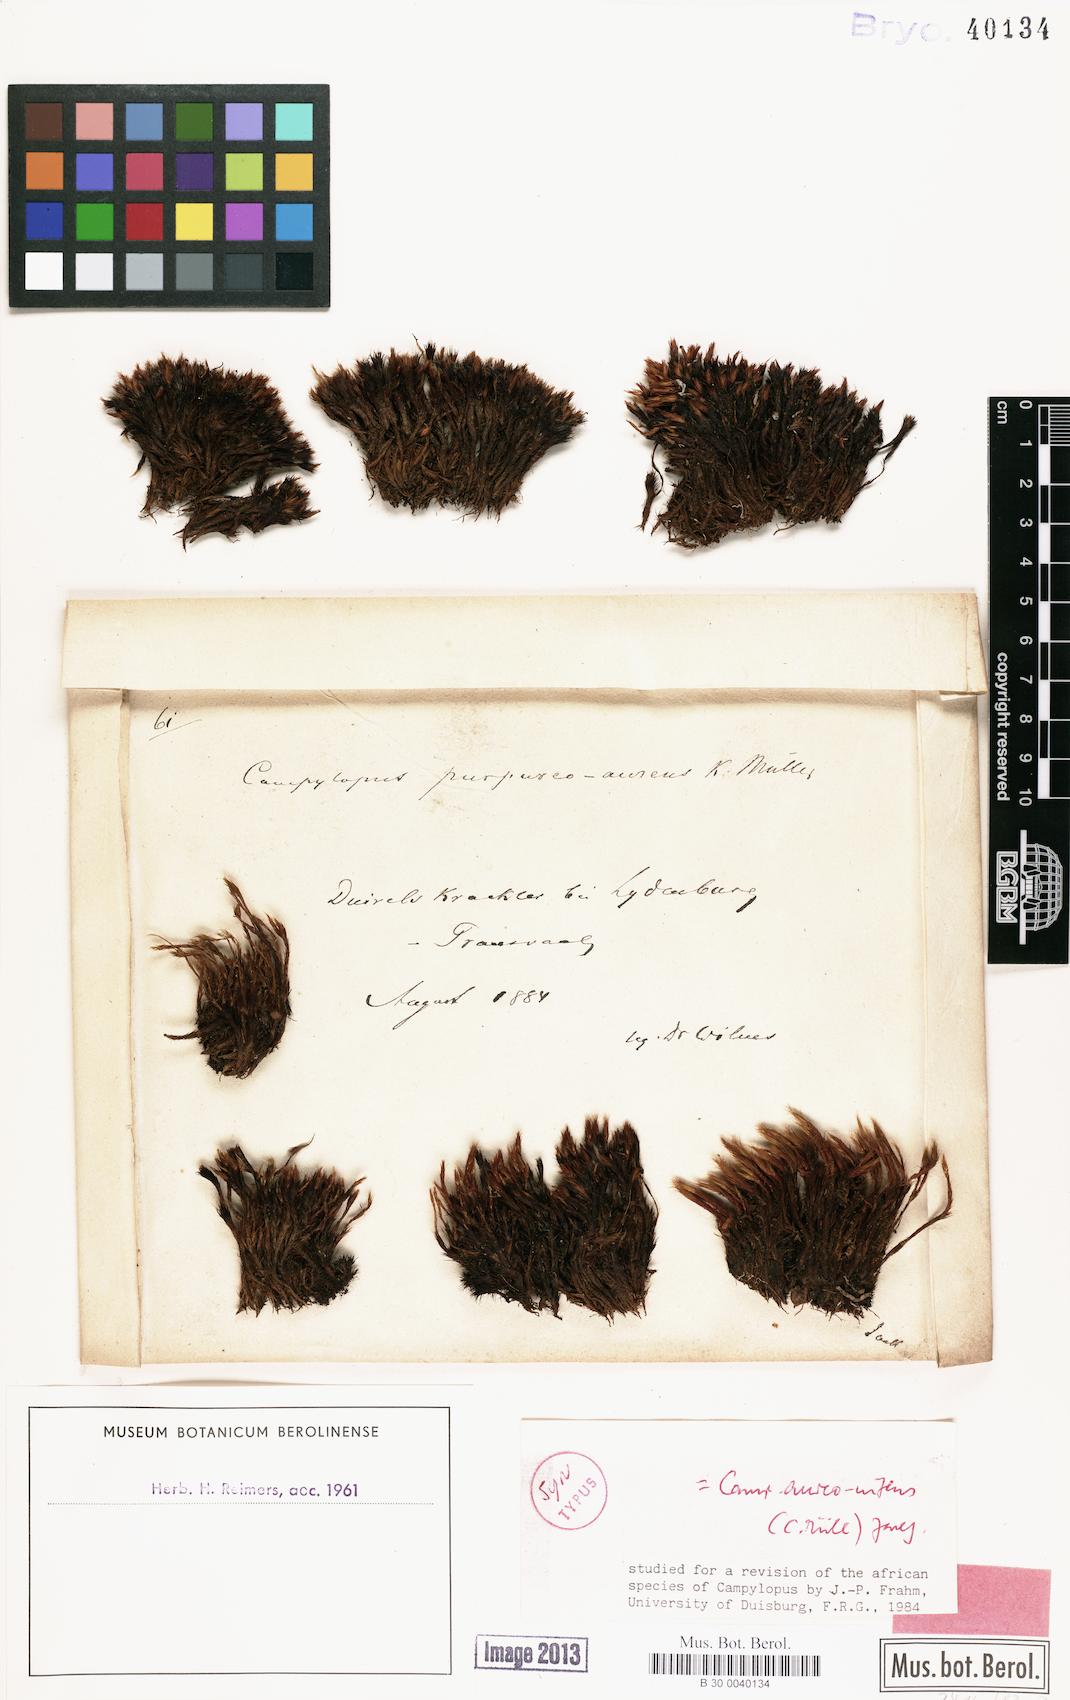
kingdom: Plantae
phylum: Bryophyta
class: Bryopsida
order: Dicranales
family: Leucobryaceae
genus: Campylopus
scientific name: Campylopus aureonitens
